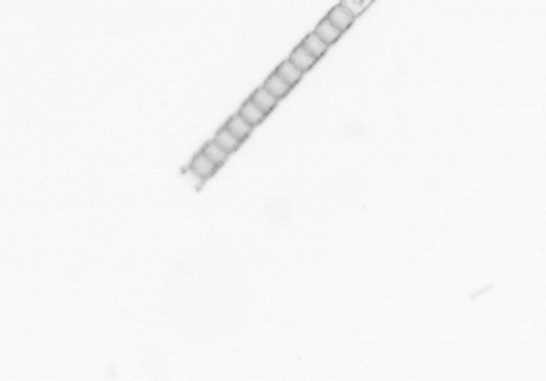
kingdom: Chromista
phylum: Ochrophyta
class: Bacillariophyceae
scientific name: Bacillariophyceae
